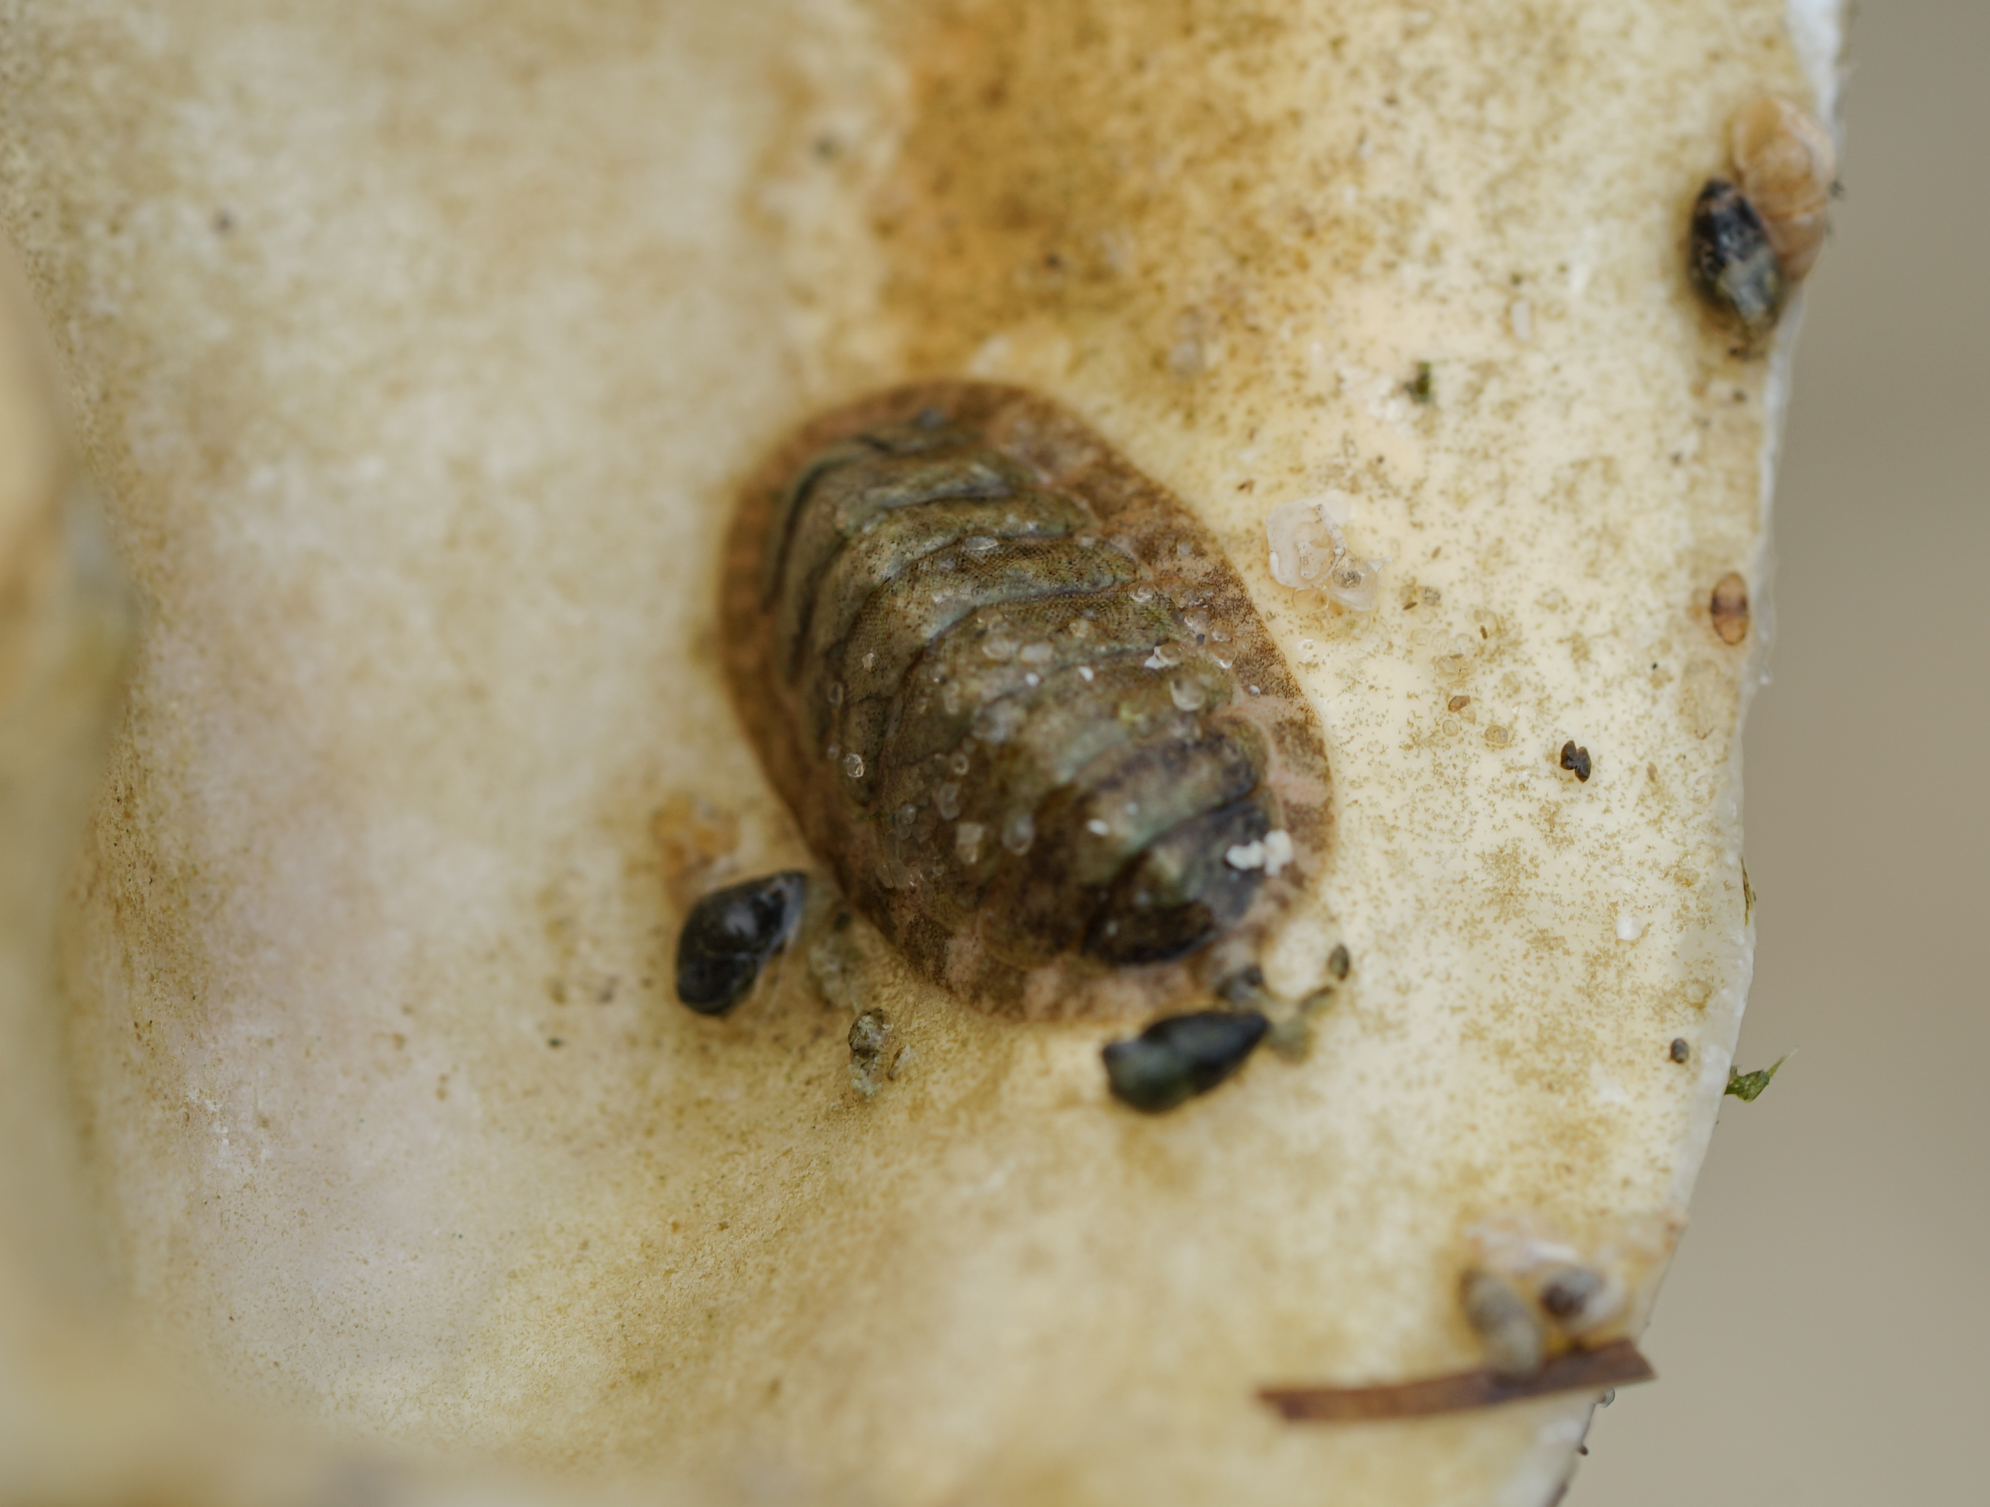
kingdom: Animalia
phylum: Mollusca
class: Polyplacophora
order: Chitonida
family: Tonicellidae
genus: Lepidochitona
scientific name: Lepidochitona cinerea
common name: Cinereous chiton
